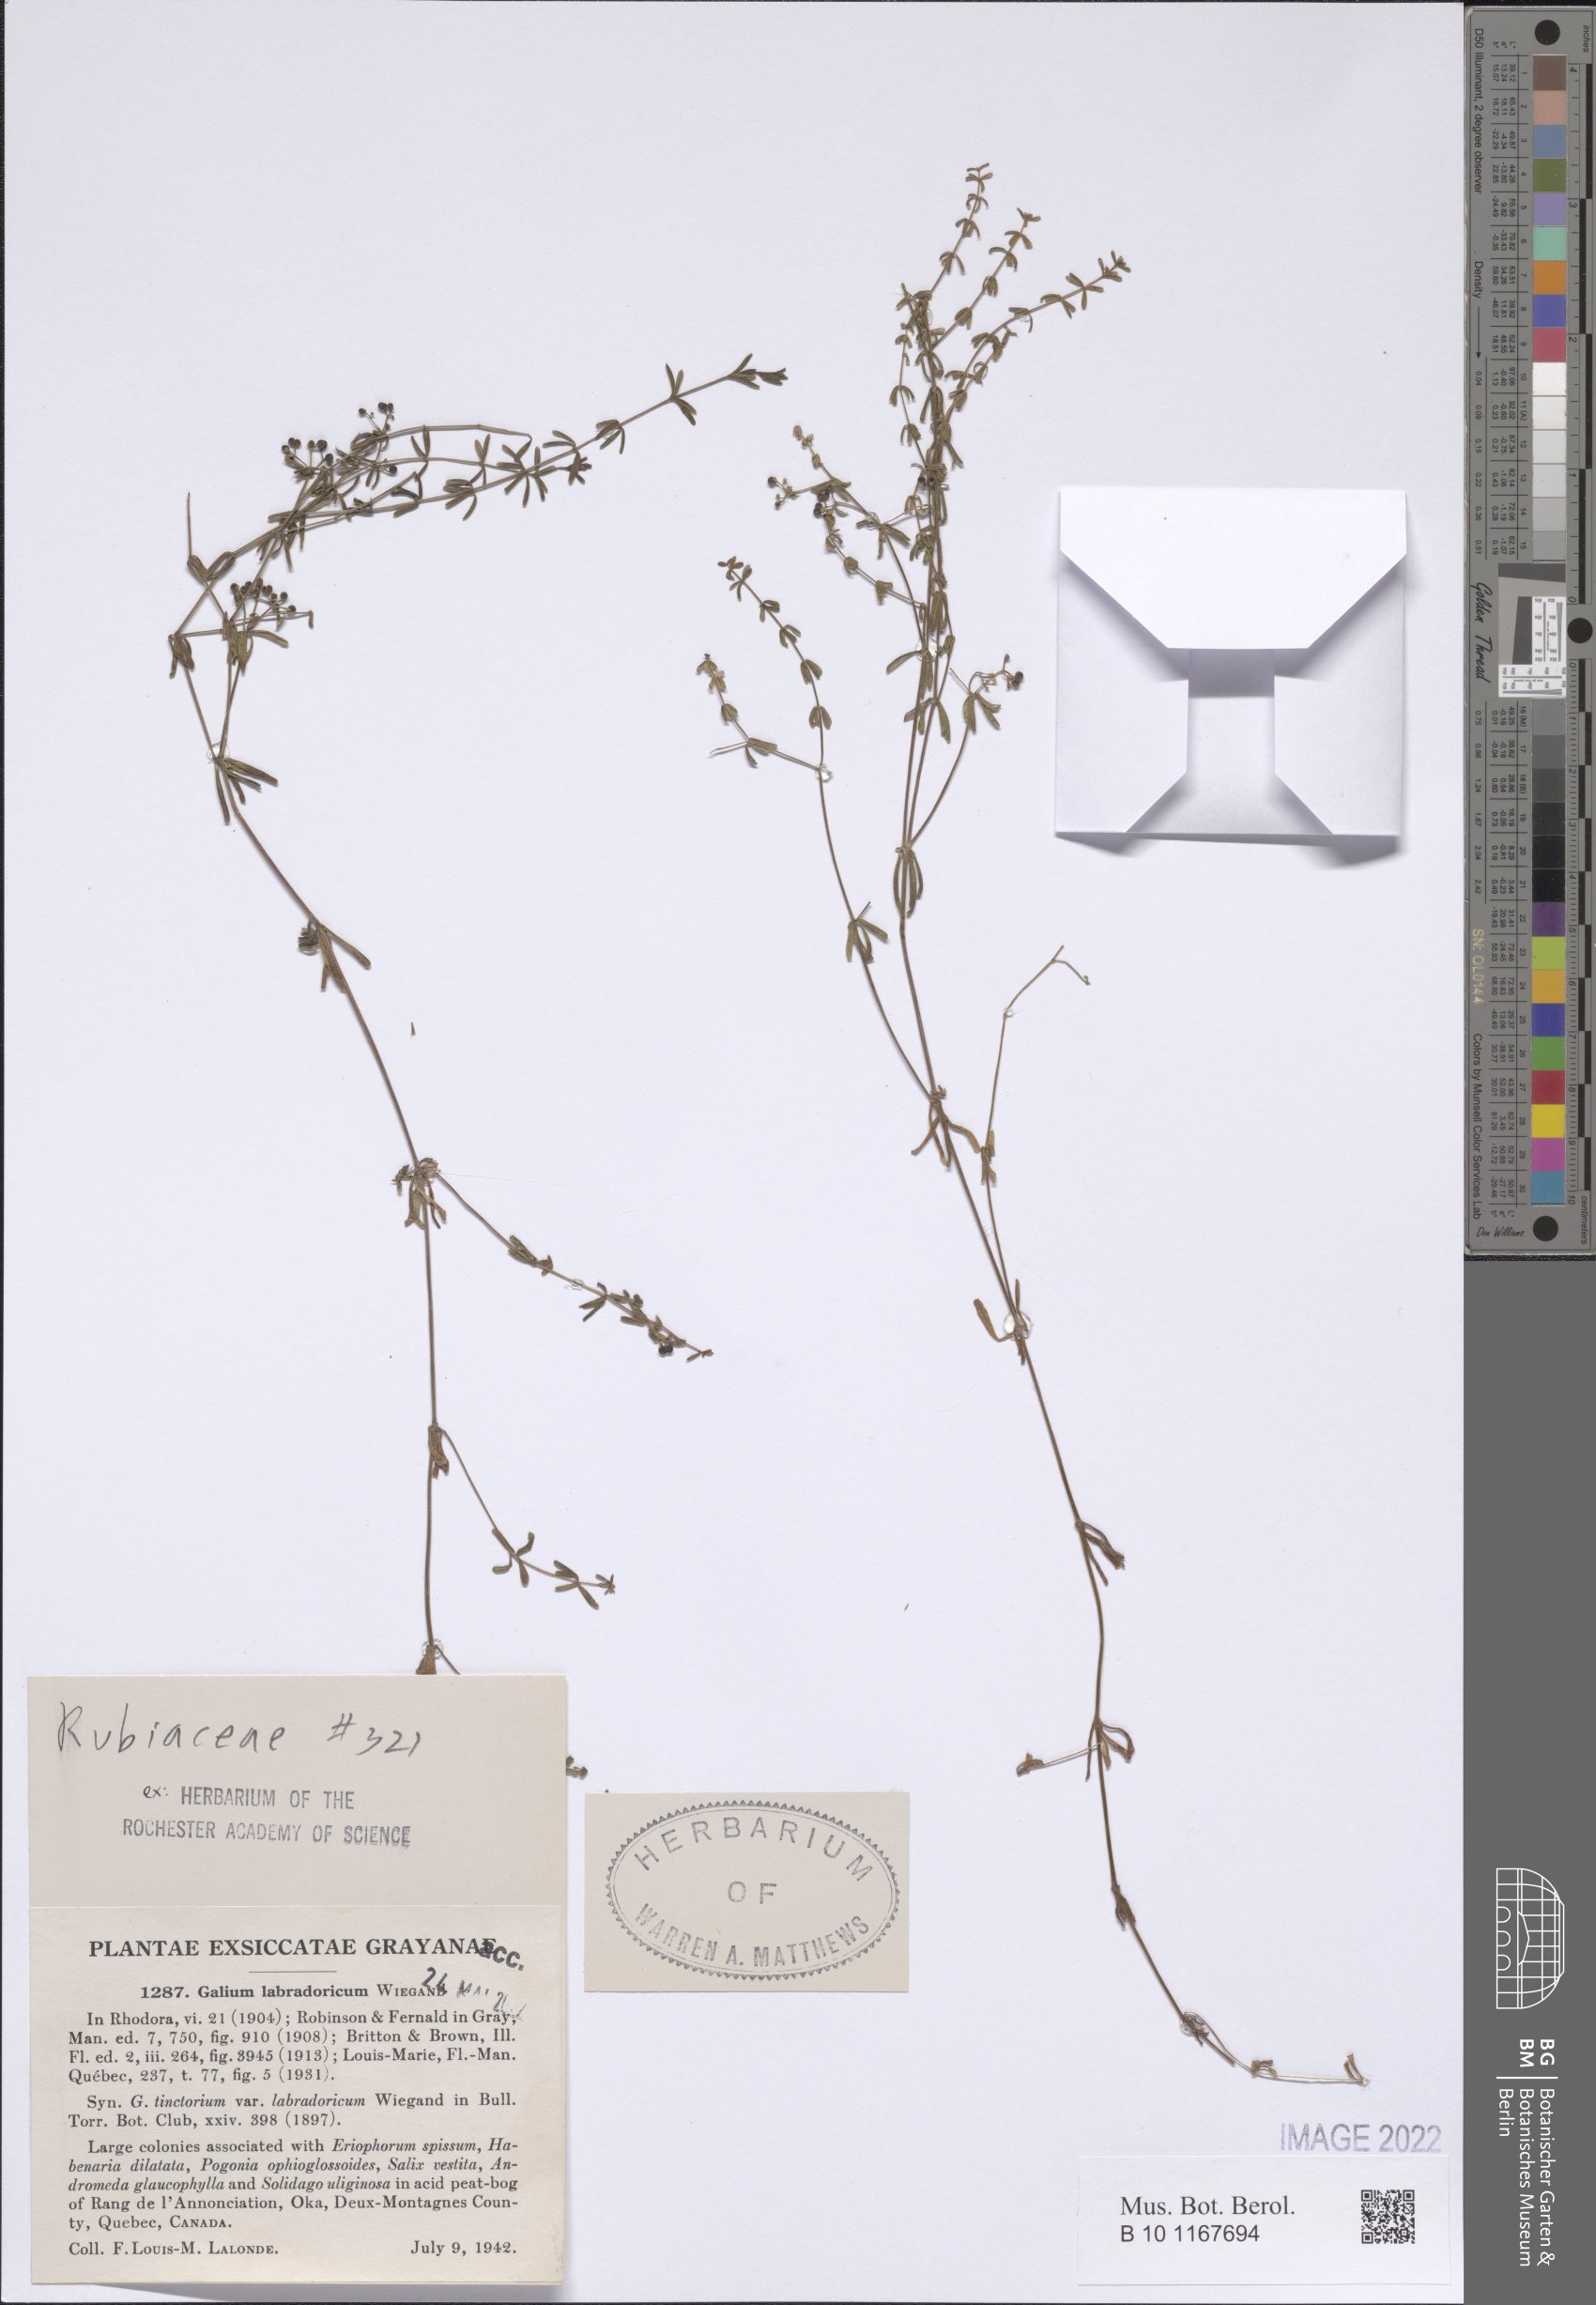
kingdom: Plantae
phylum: Tracheophyta
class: Magnoliopsida
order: Gentianales
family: Rubiaceae
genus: Galium
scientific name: Galium labradoricum
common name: Labrador bedstraw
